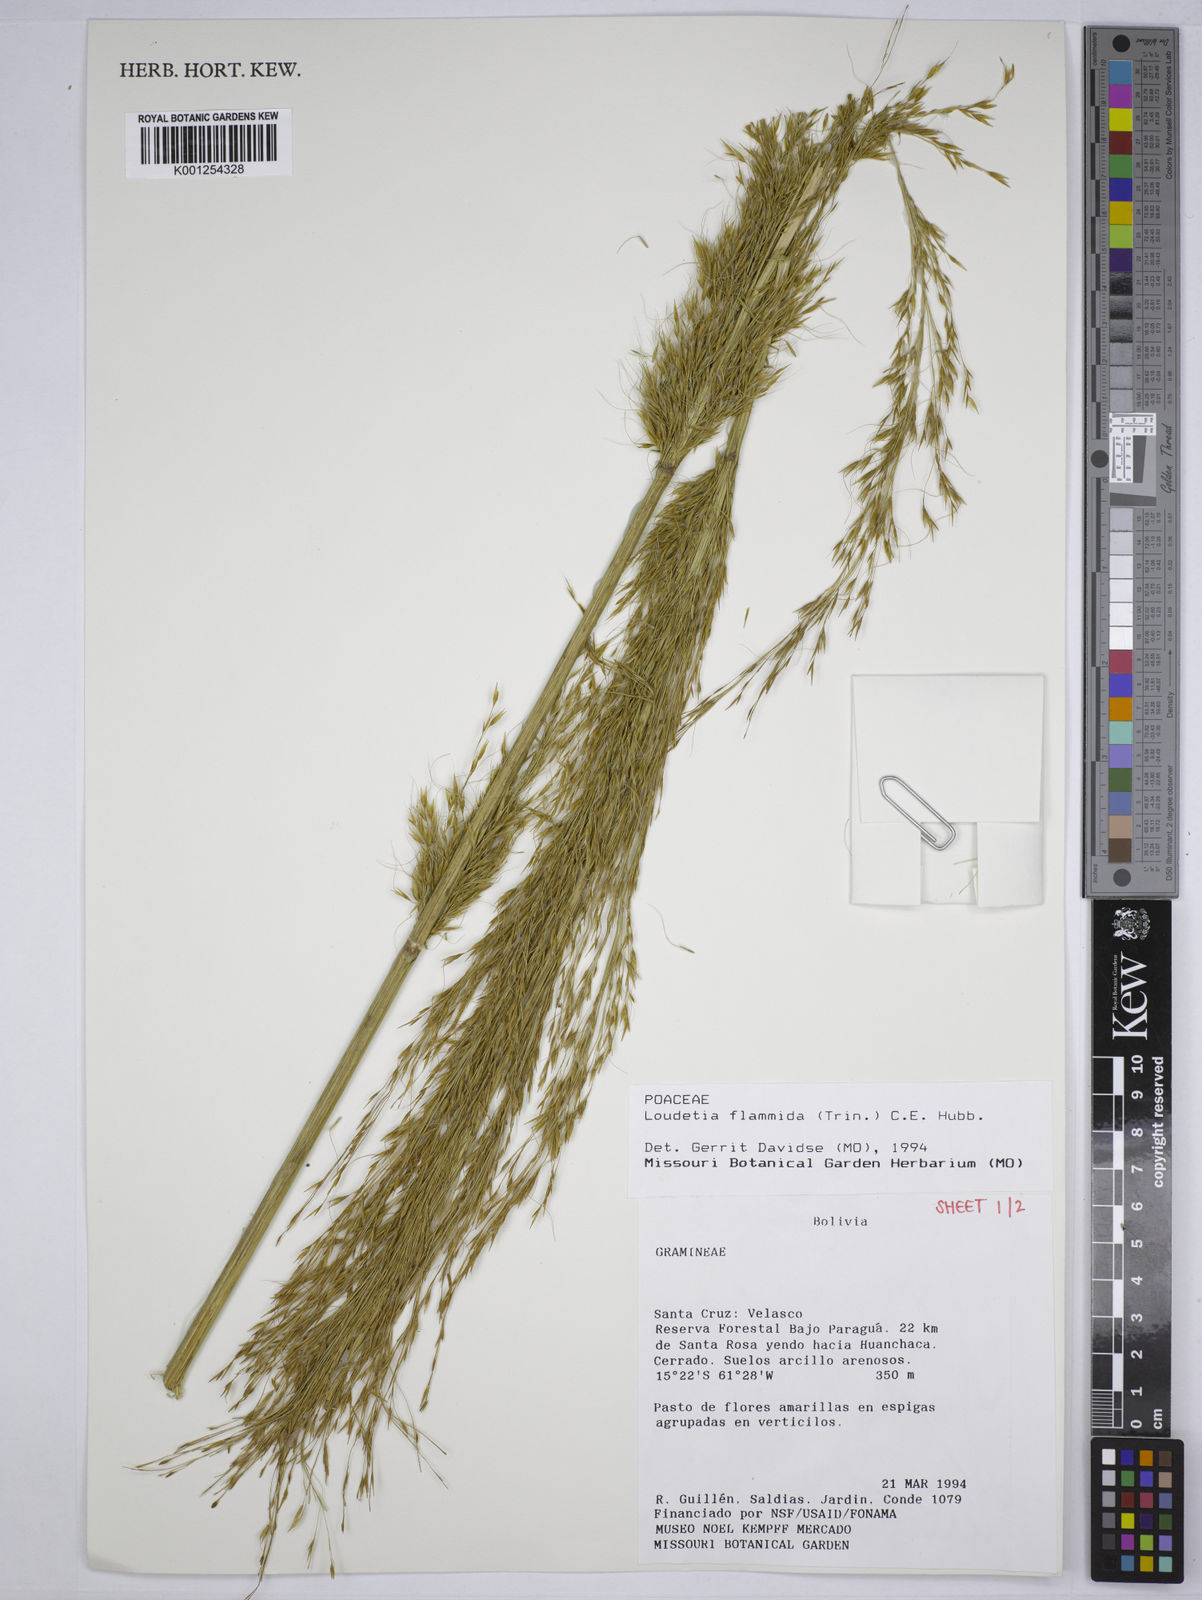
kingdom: Plantae
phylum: Tracheophyta
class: Liliopsida
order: Poales
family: Poaceae
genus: Loudetia
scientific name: Loudetia flammida
